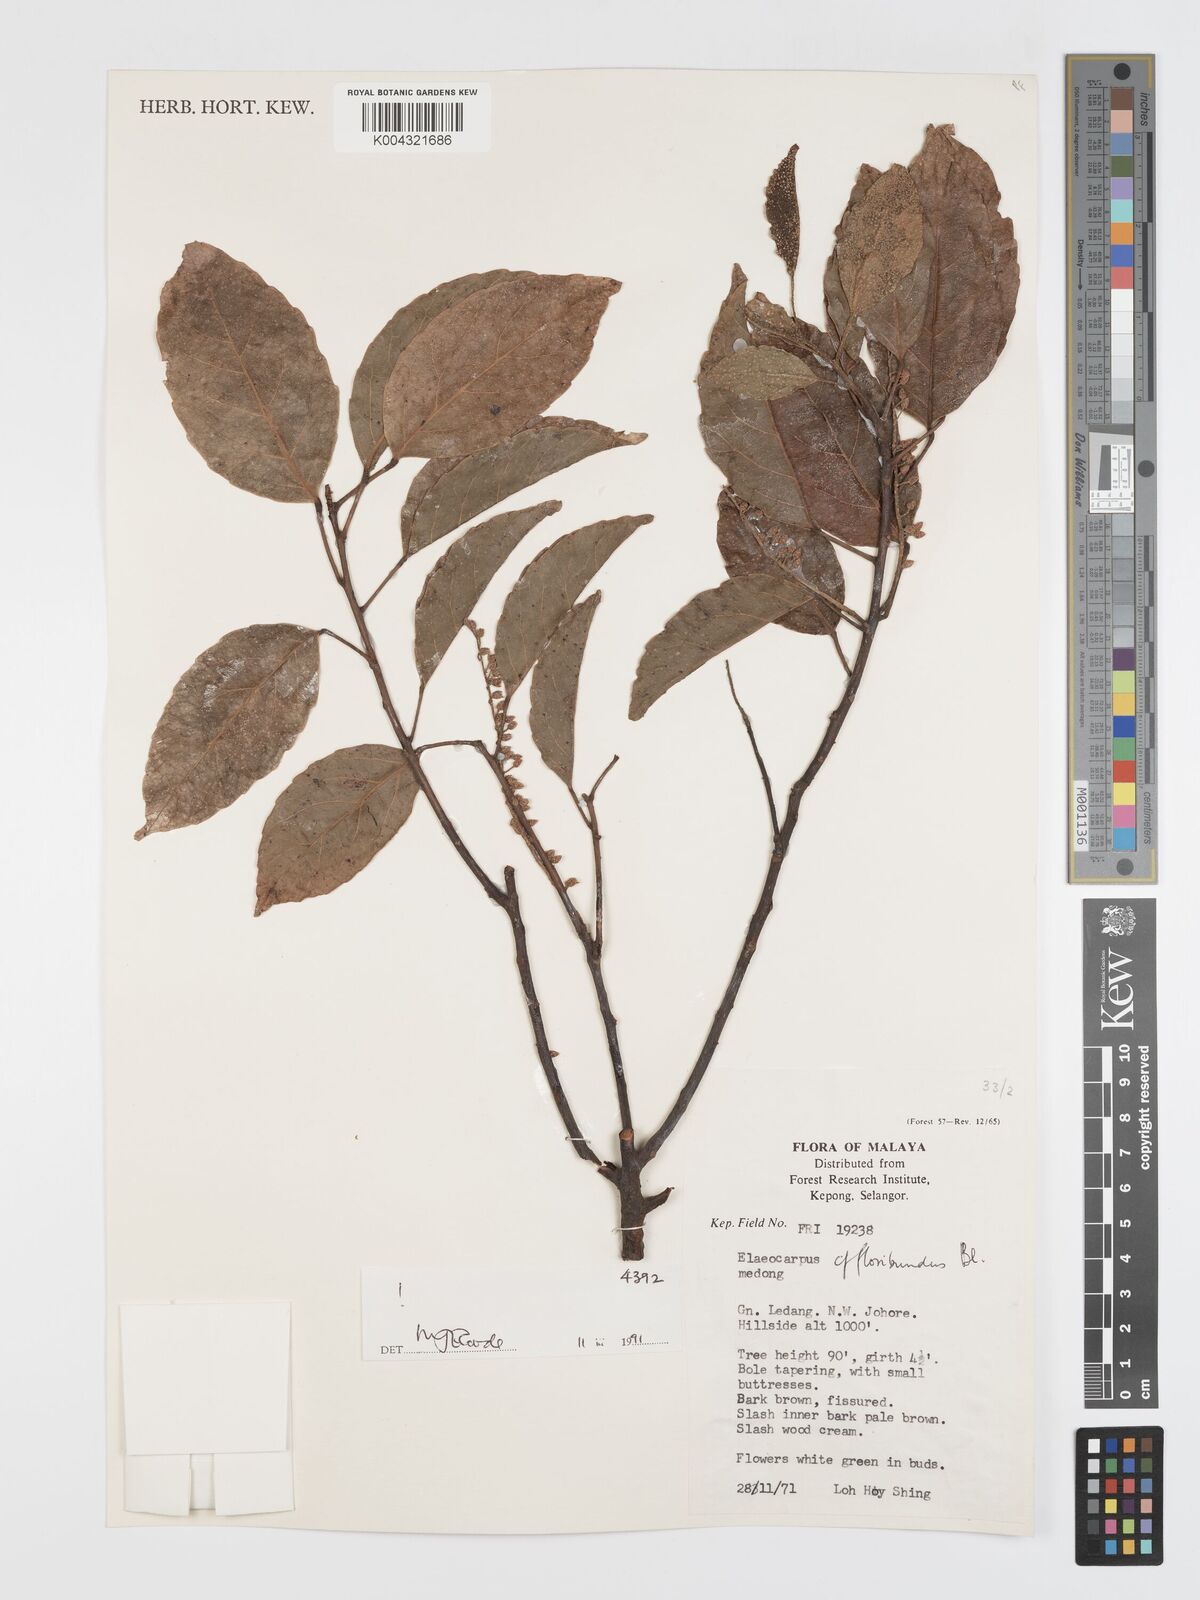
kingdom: Plantae
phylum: Tracheophyta
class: Magnoliopsida
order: Oxalidales
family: Elaeocarpaceae
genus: Elaeocarpus
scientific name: Elaeocarpus floribundus
